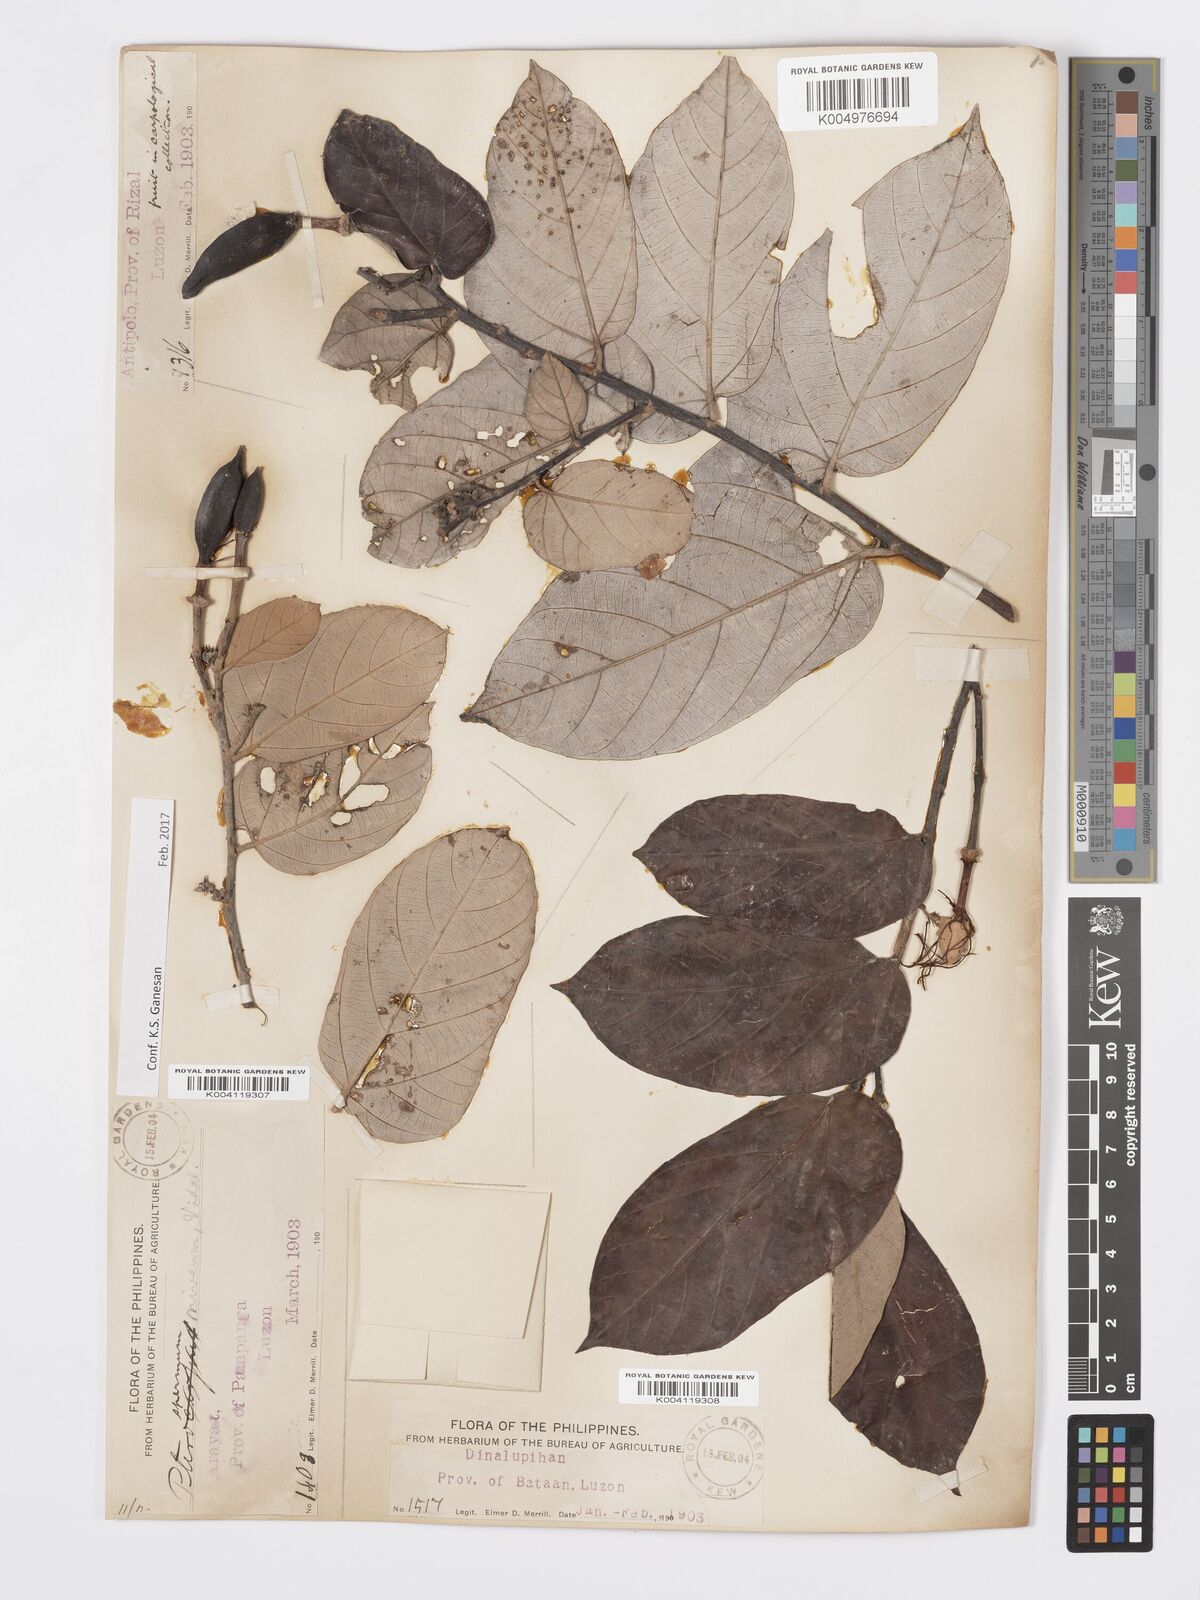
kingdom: Plantae
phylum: Tracheophyta
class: Magnoliopsida
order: Malvales
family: Malvaceae
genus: Pterospermum
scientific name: Pterospermum niveum
